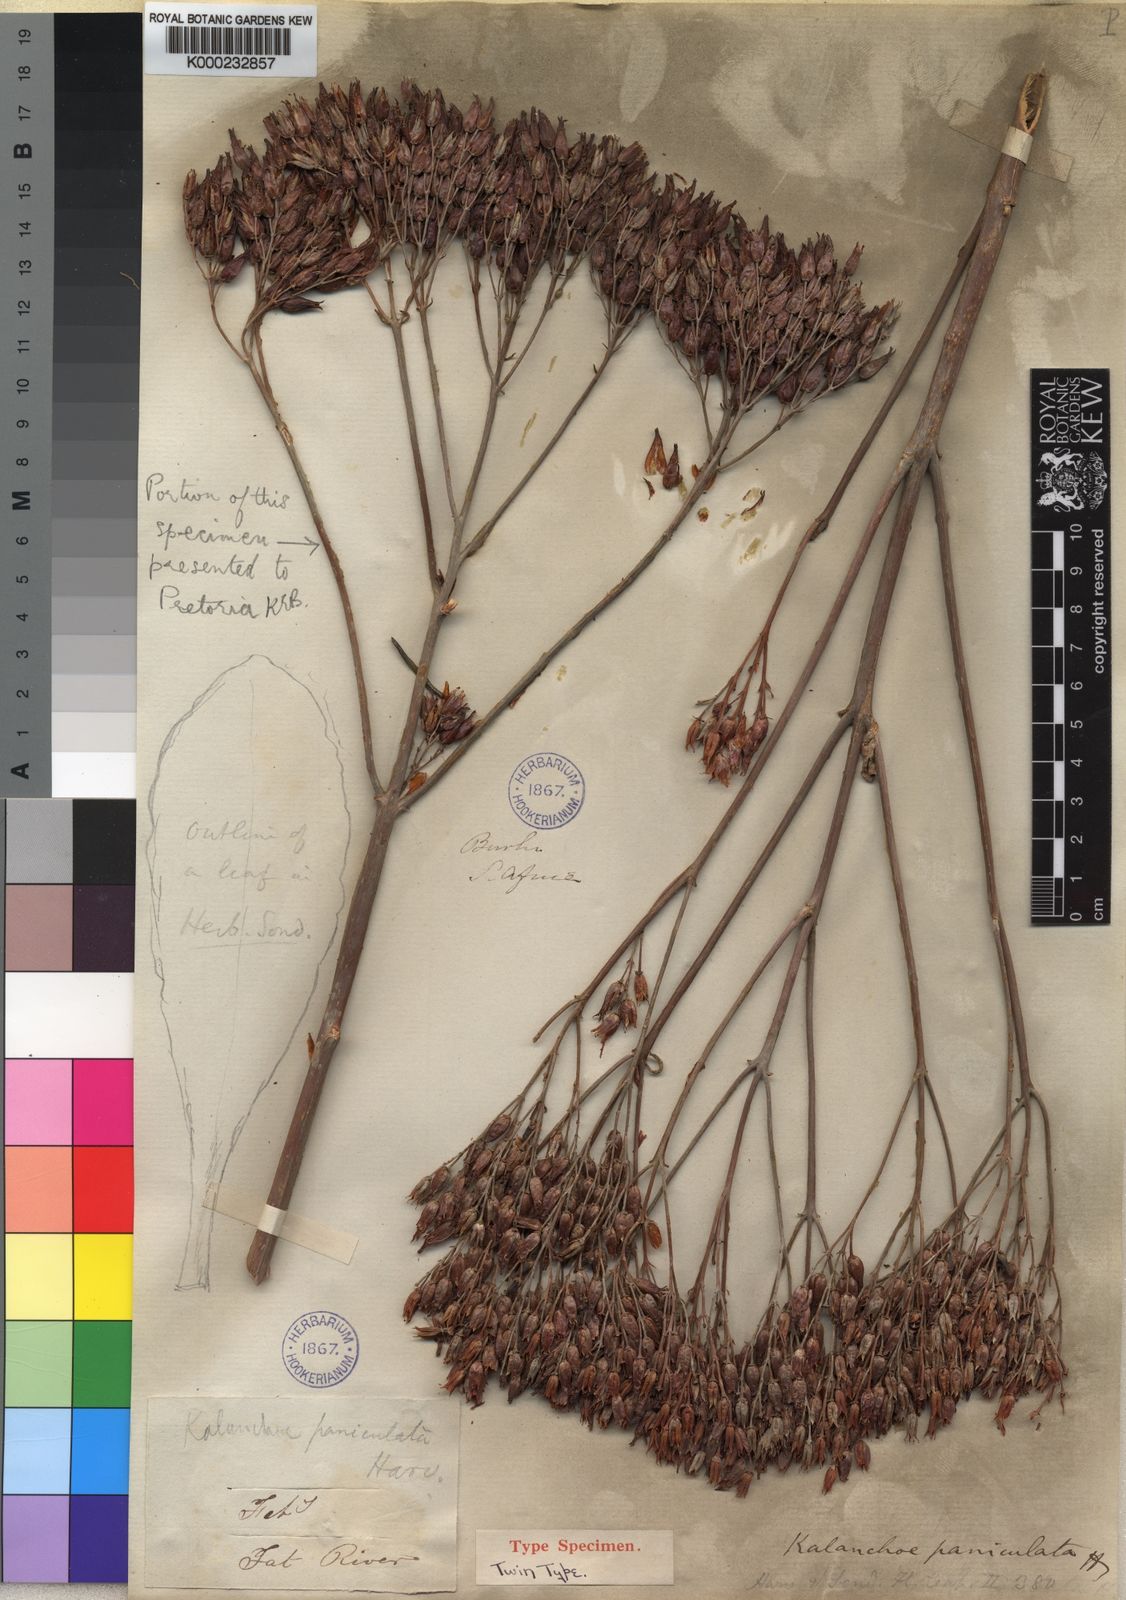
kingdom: Plantae
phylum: Tracheophyta
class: Magnoliopsida
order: Saxifragales
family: Crassulaceae
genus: Kalanchoe
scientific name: Kalanchoe paniculata
